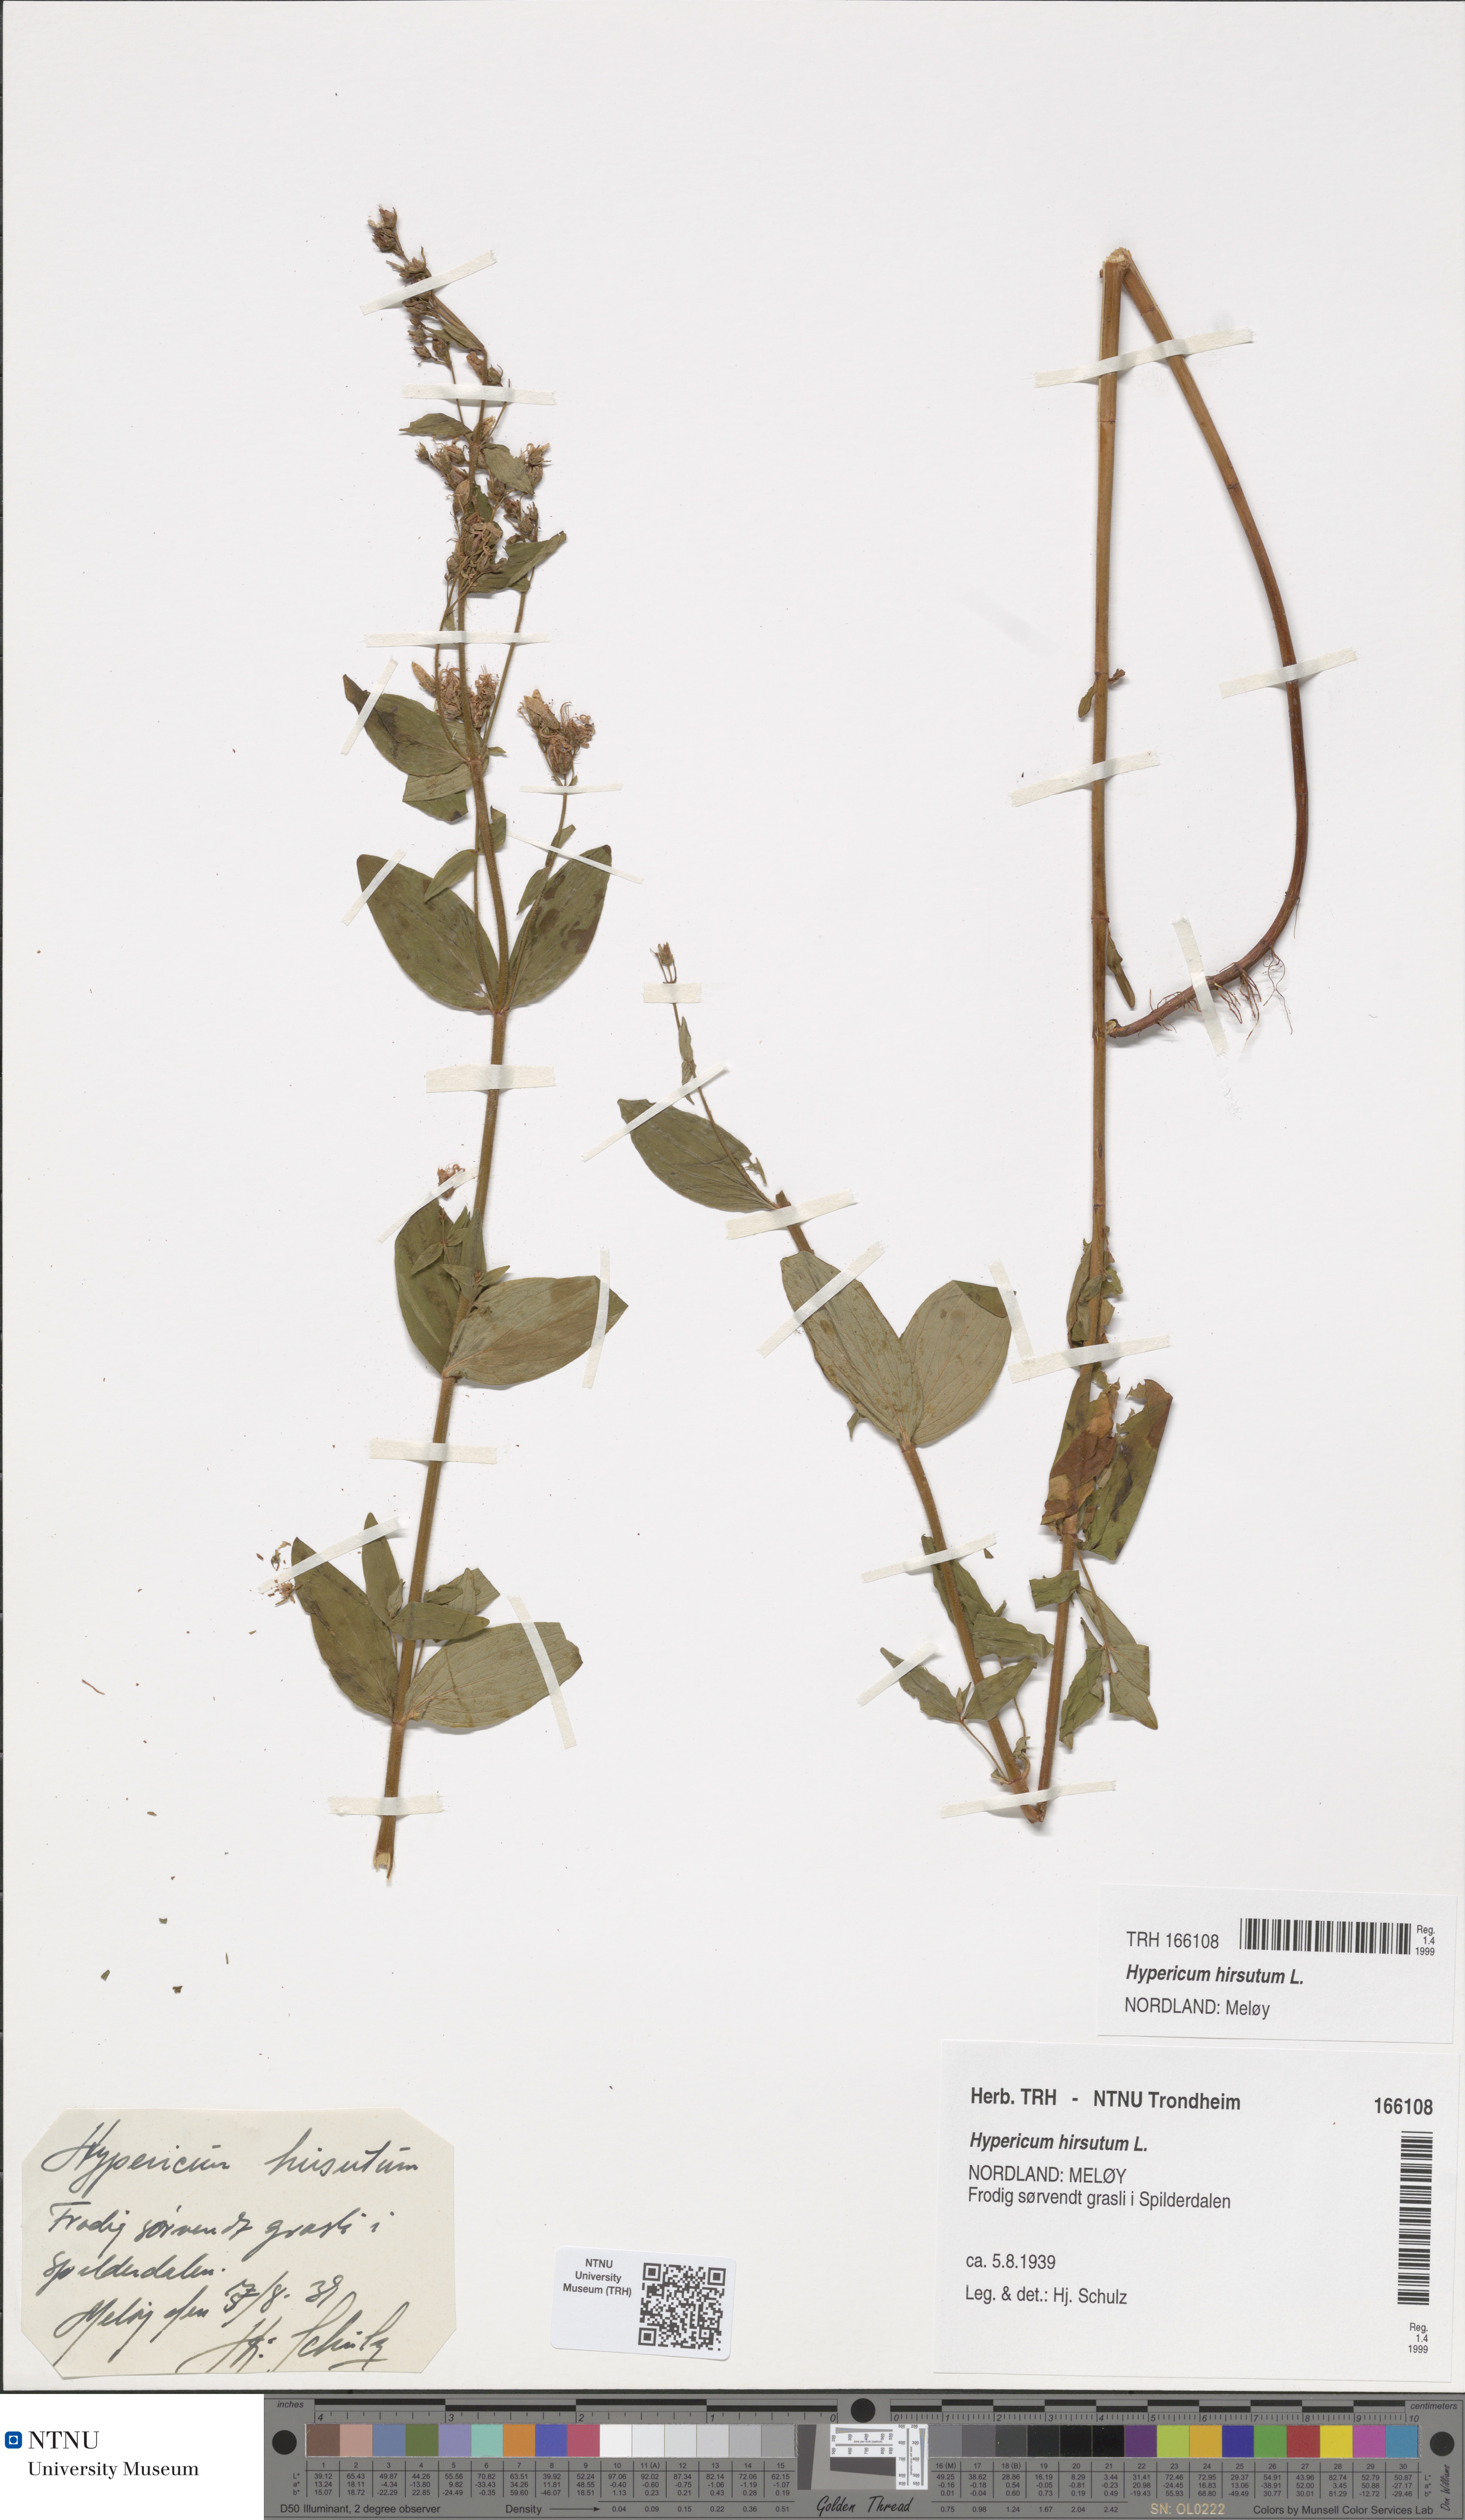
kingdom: Plantae
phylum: Tracheophyta
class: Magnoliopsida
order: Malpighiales
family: Hypericaceae
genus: Hypericum
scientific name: Hypericum hirsutum
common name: Hairy st. john's-wort
